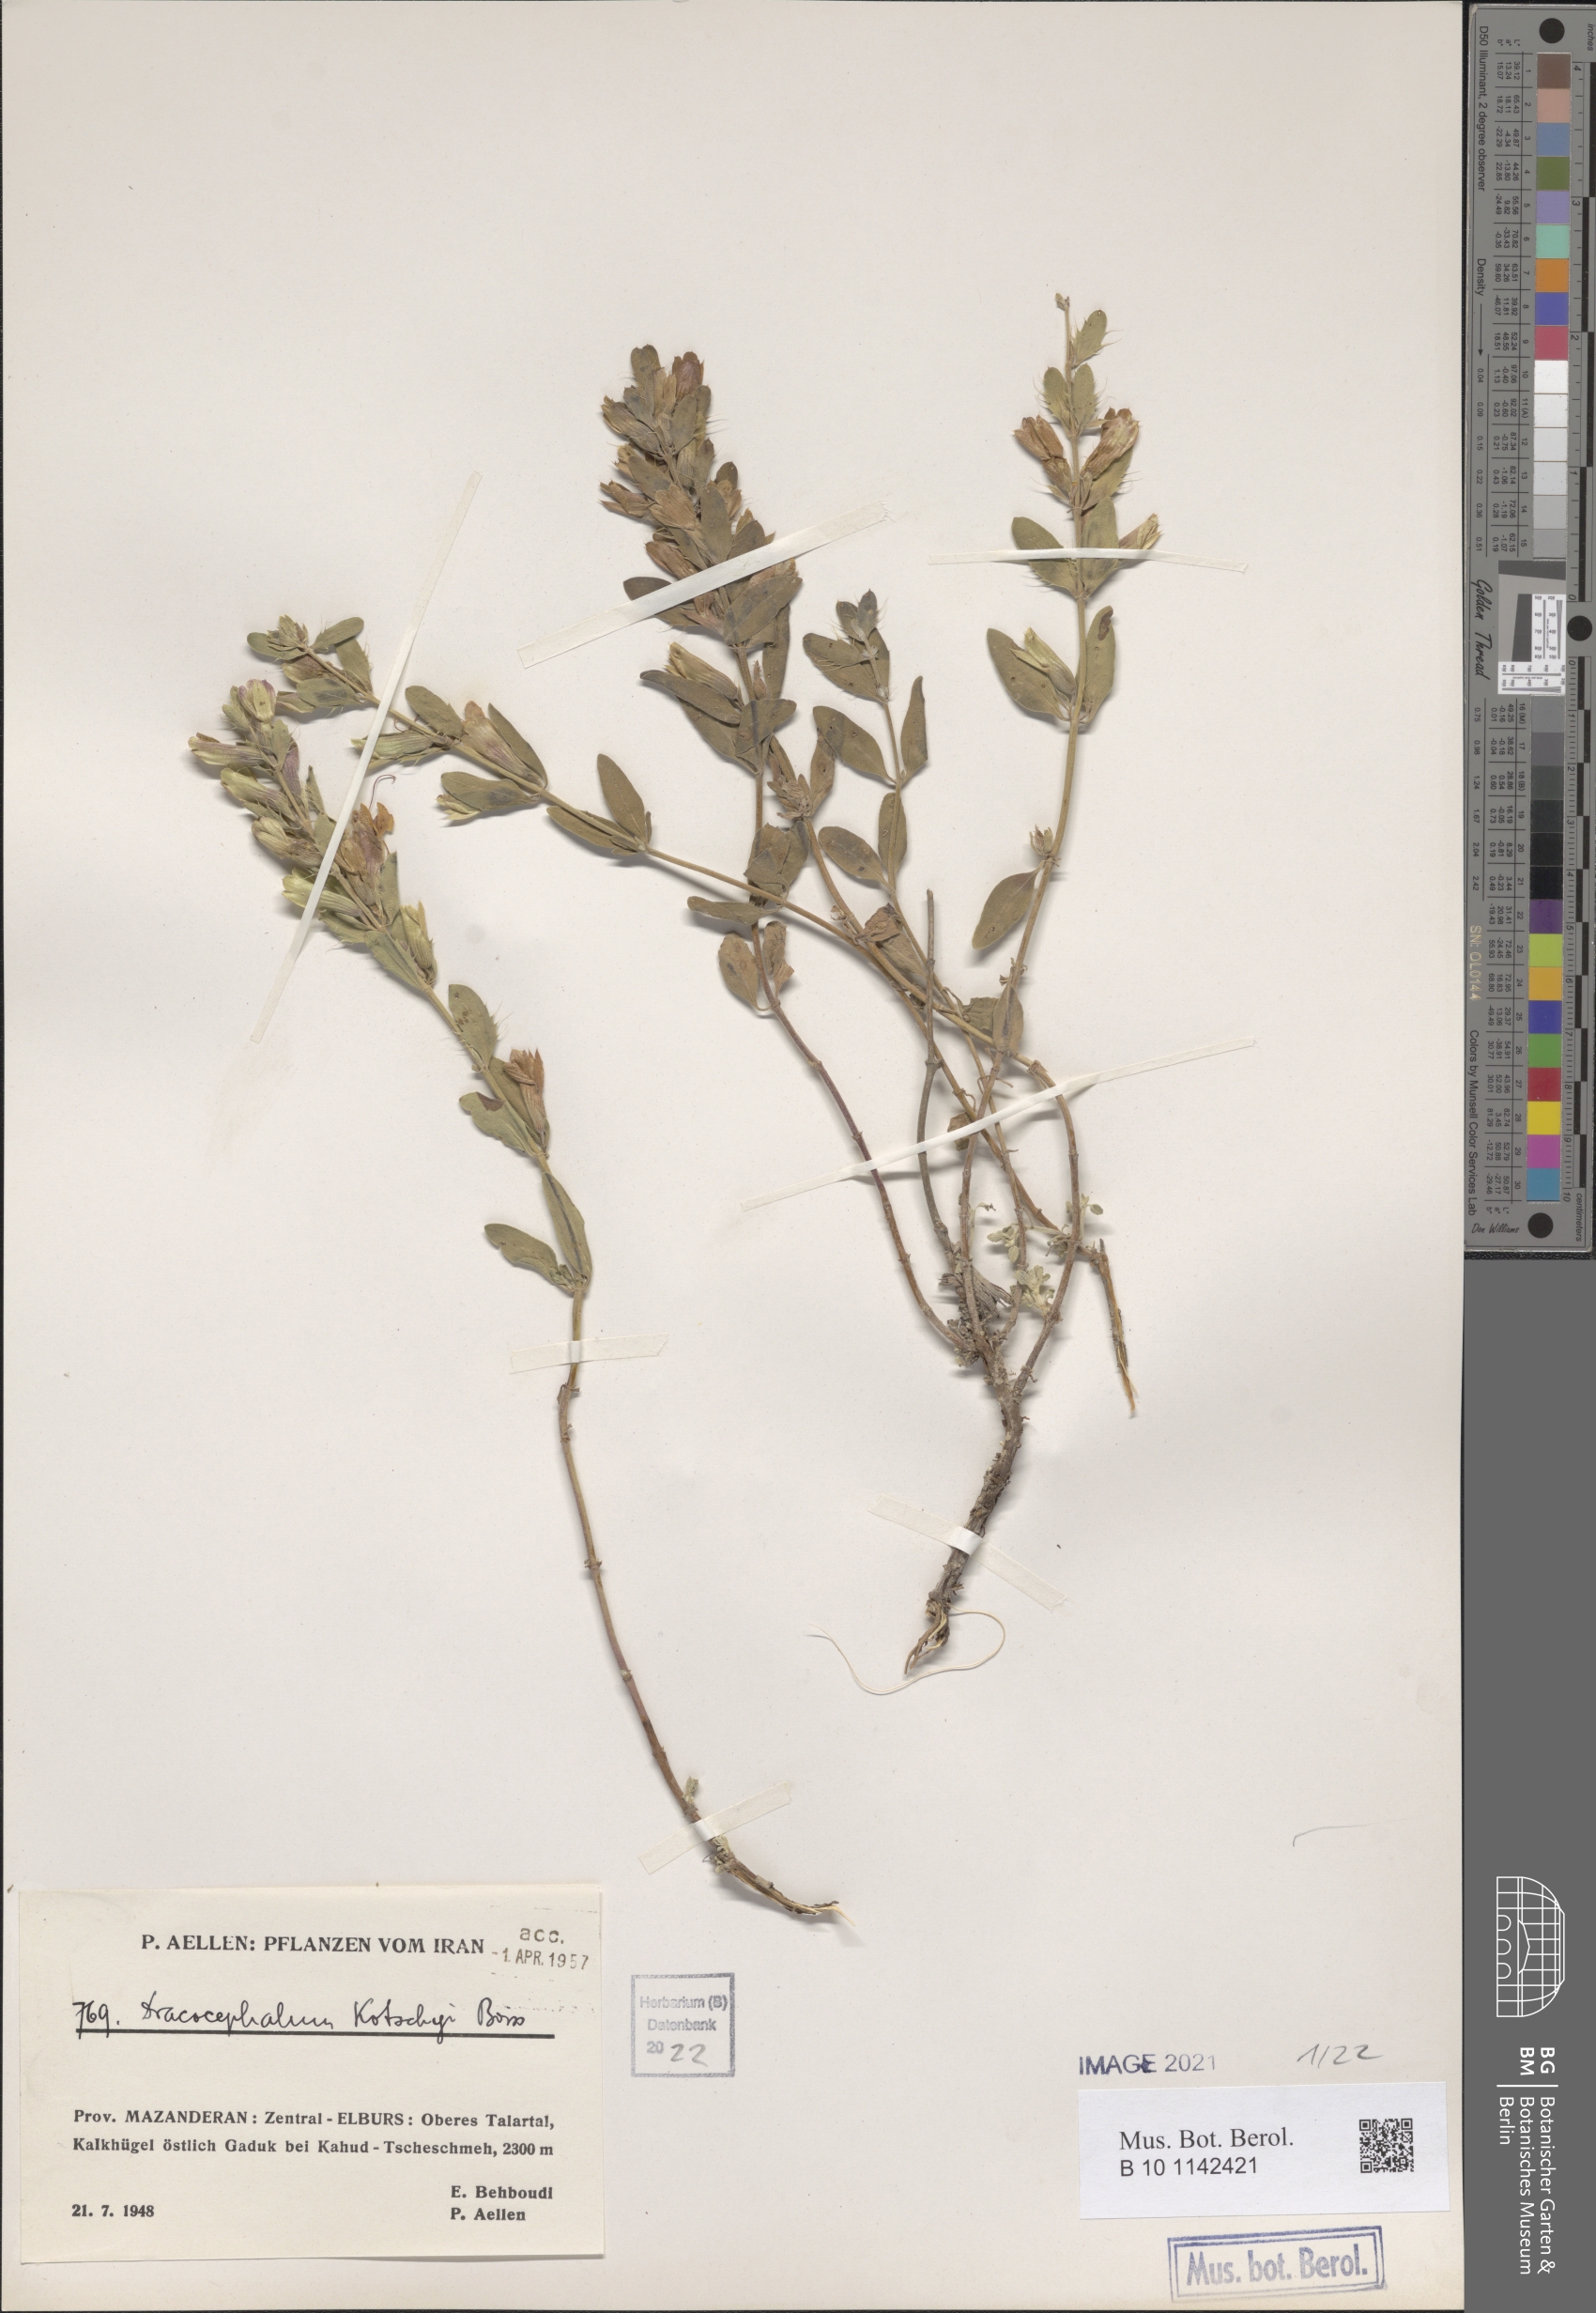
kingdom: Plantae
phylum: Tracheophyta
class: Magnoliopsida
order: Lamiales
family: Lamiaceae
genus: Dracocephalum
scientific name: Dracocephalum kotschyi
